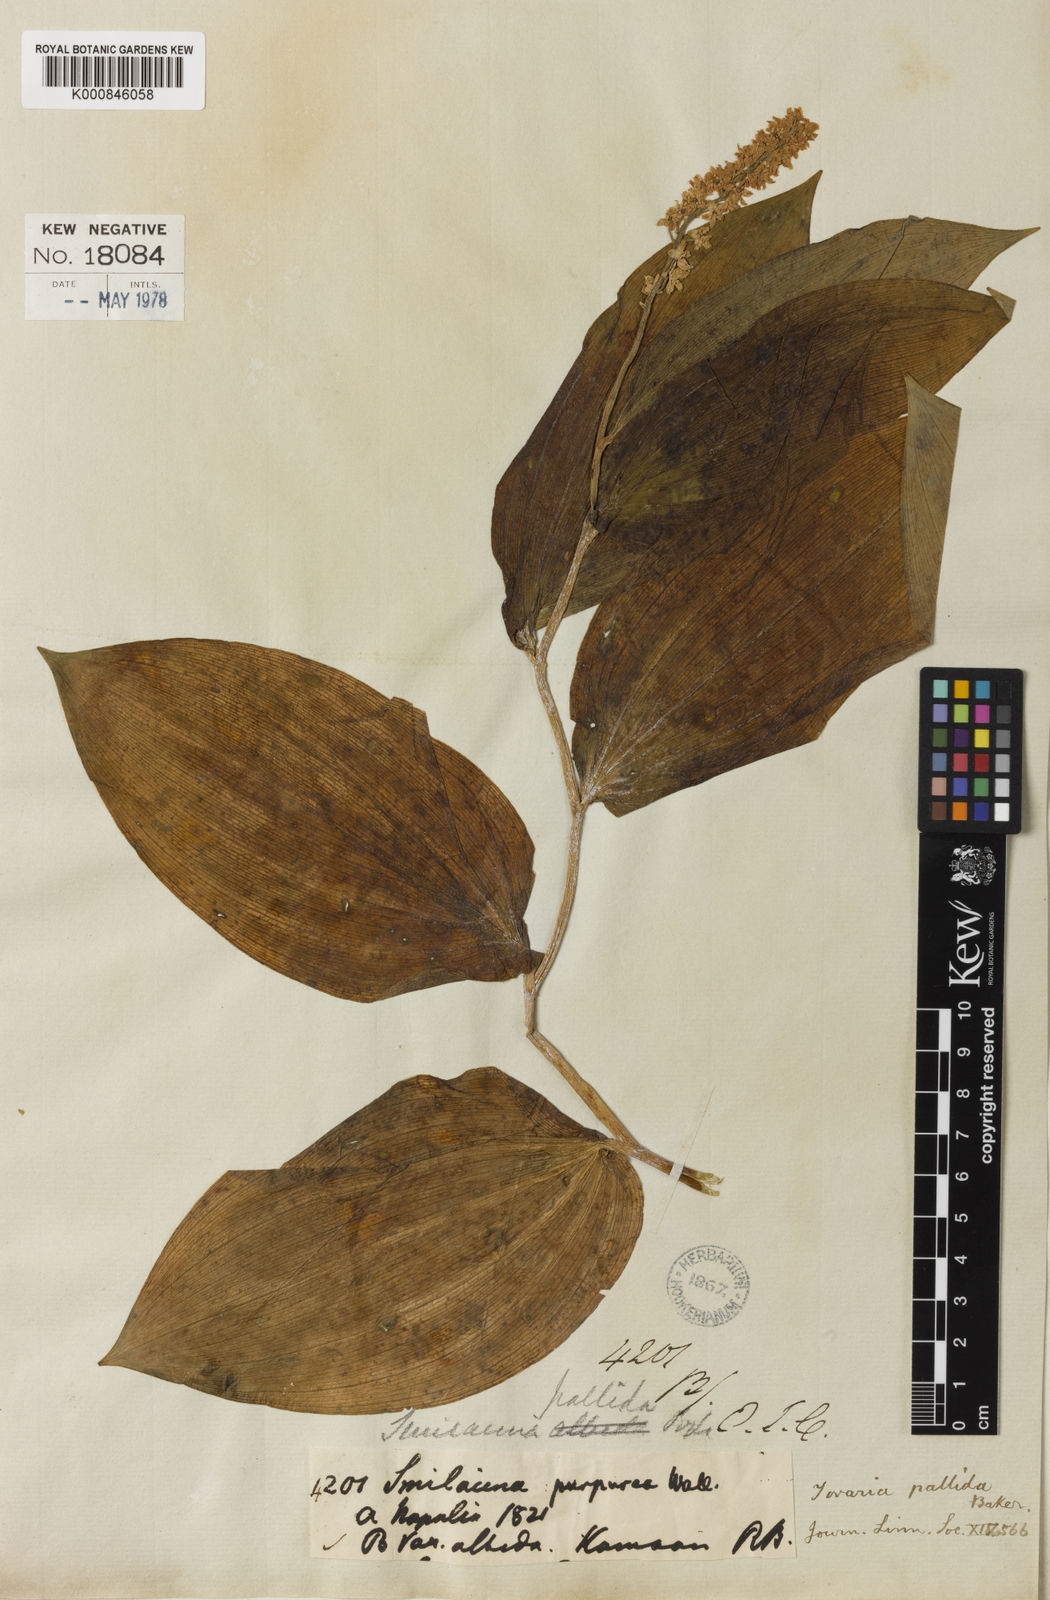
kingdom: Plantae
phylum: Tracheophyta
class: Liliopsida
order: Asparagales
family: Asparagaceae
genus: Maianthemum
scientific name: Maianthemum purpureum
